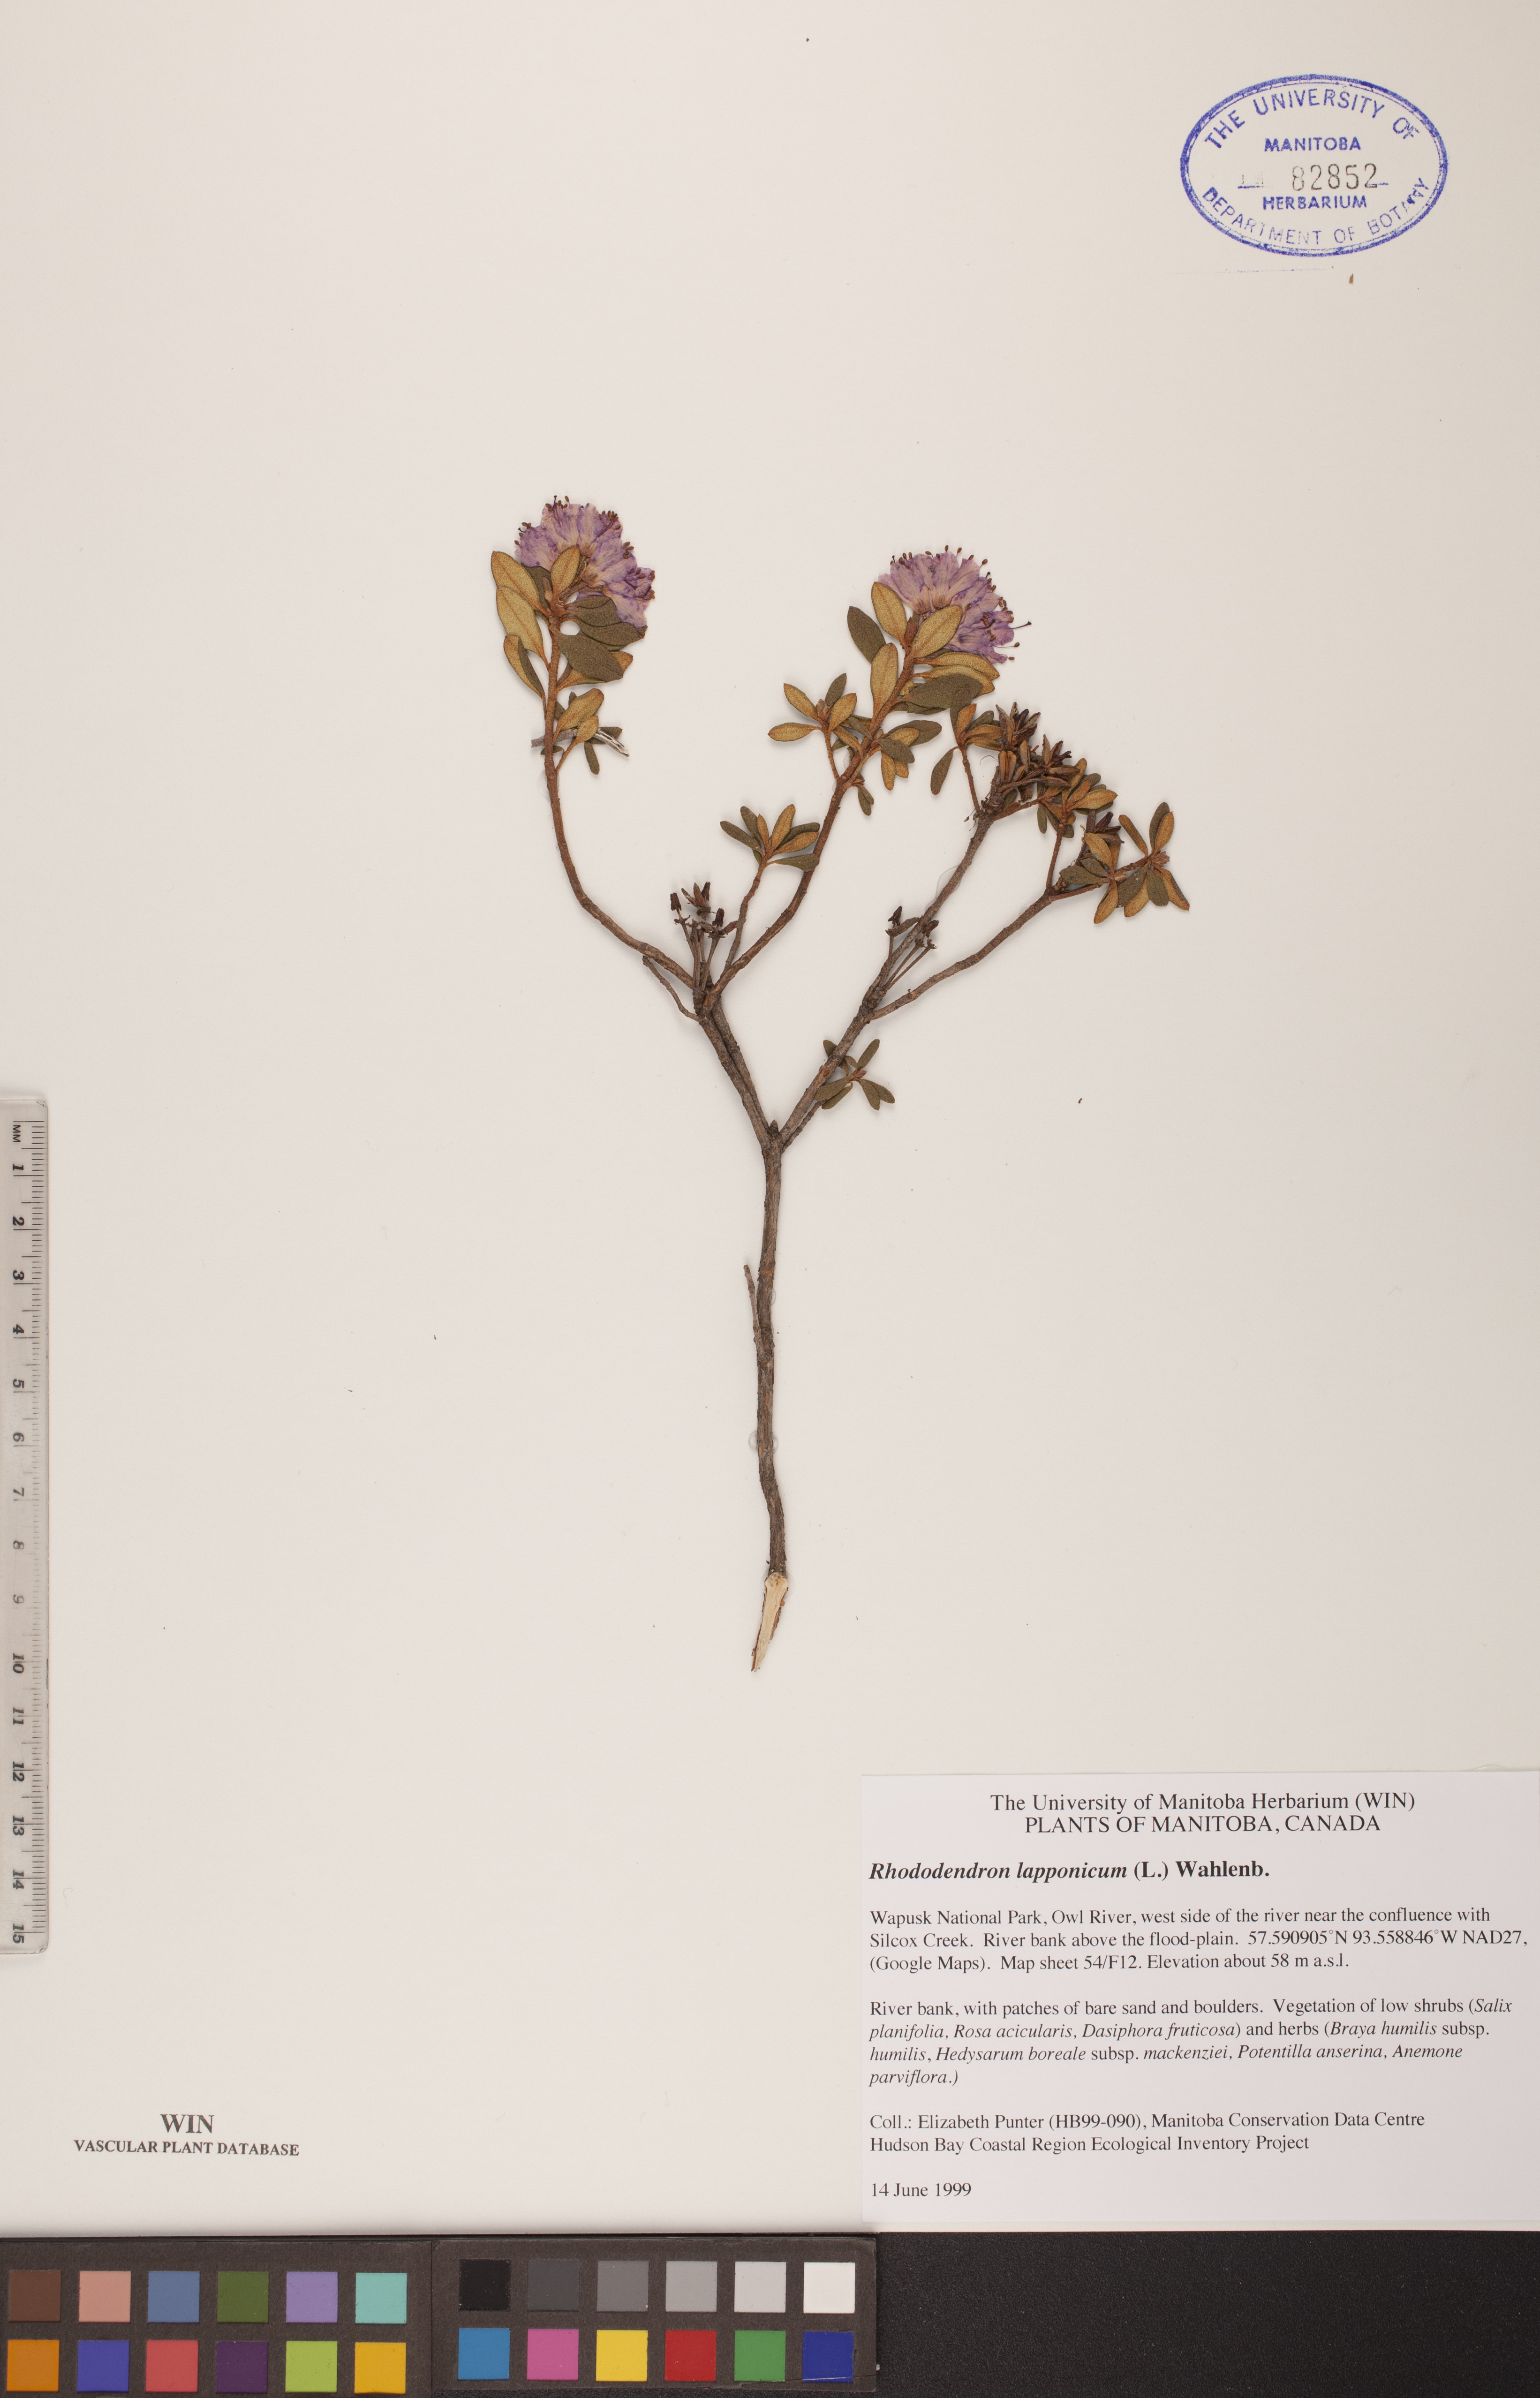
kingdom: Plantae
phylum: Tracheophyta
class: Magnoliopsida
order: Ericales
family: Ericaceae
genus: Rhododendron
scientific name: Rhododendron lapponicum
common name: Lapland rhododendron
